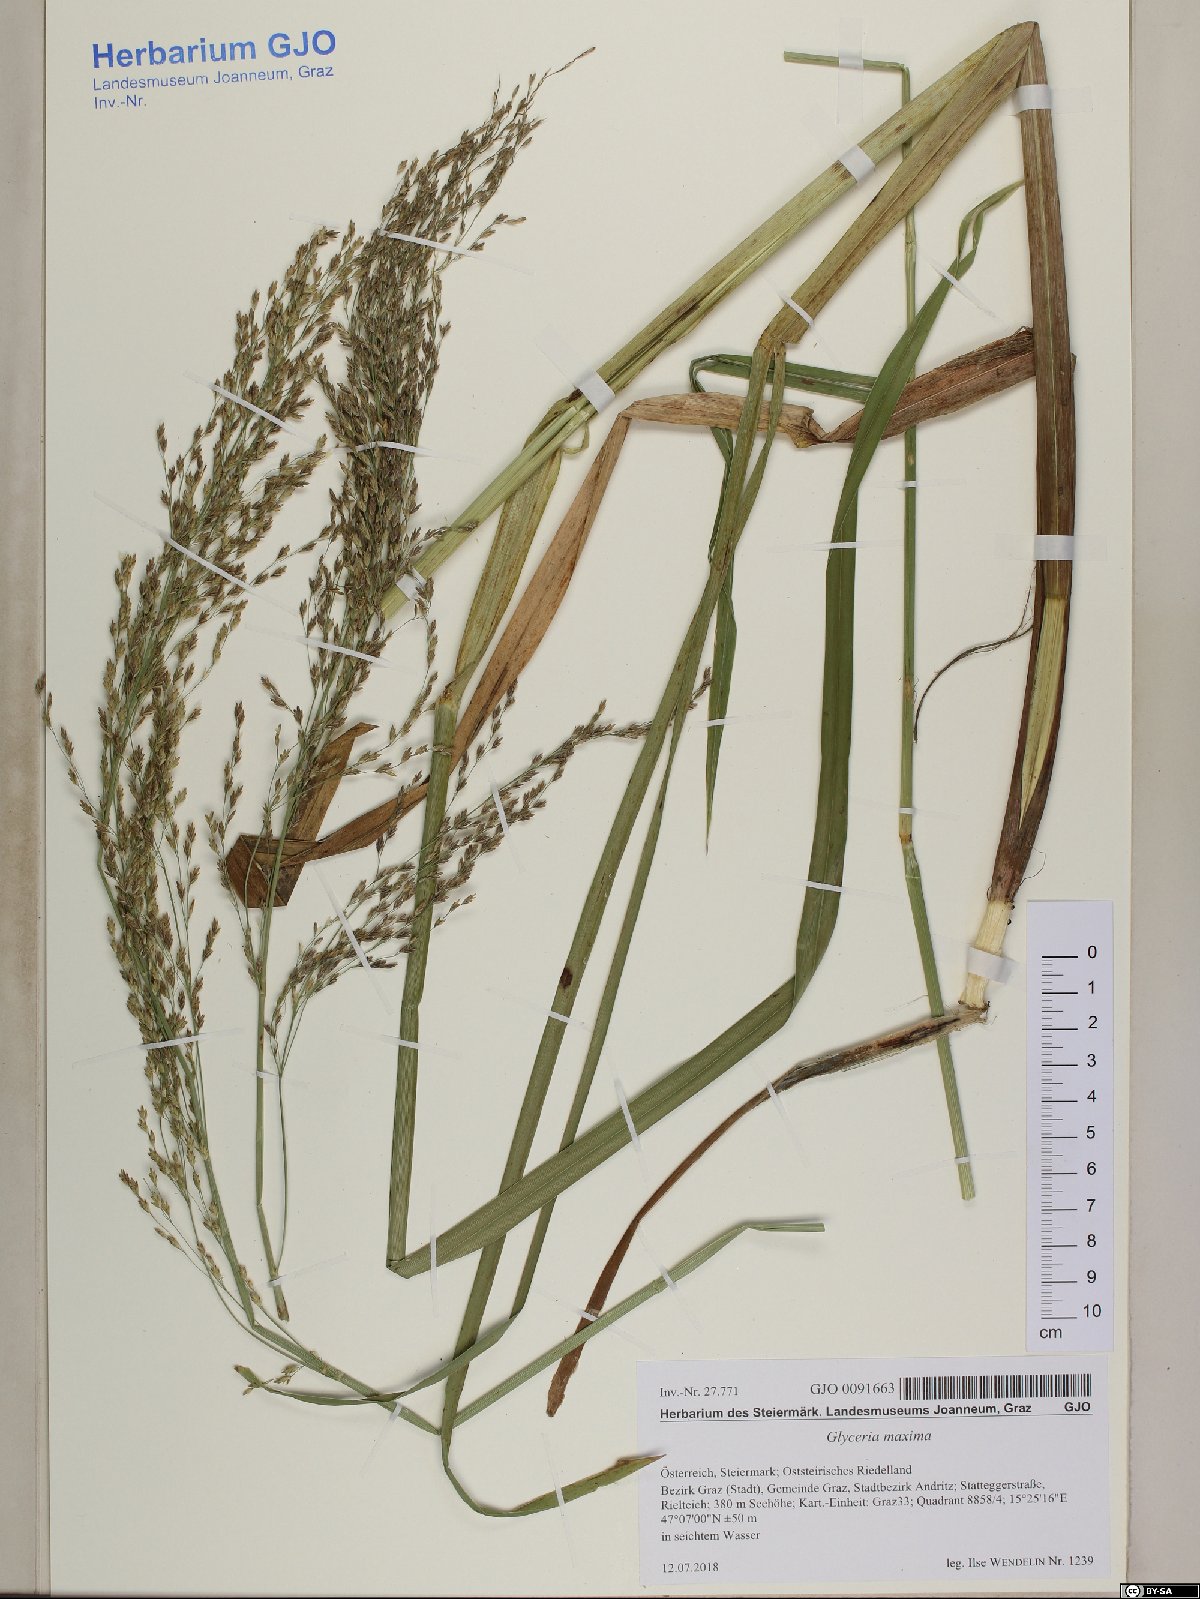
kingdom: Plantae
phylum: Tracheophyta
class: Liliopsida
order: Poales
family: Poaceae
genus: Glyceria
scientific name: Glyceria maxima
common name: Reed mannagrass
